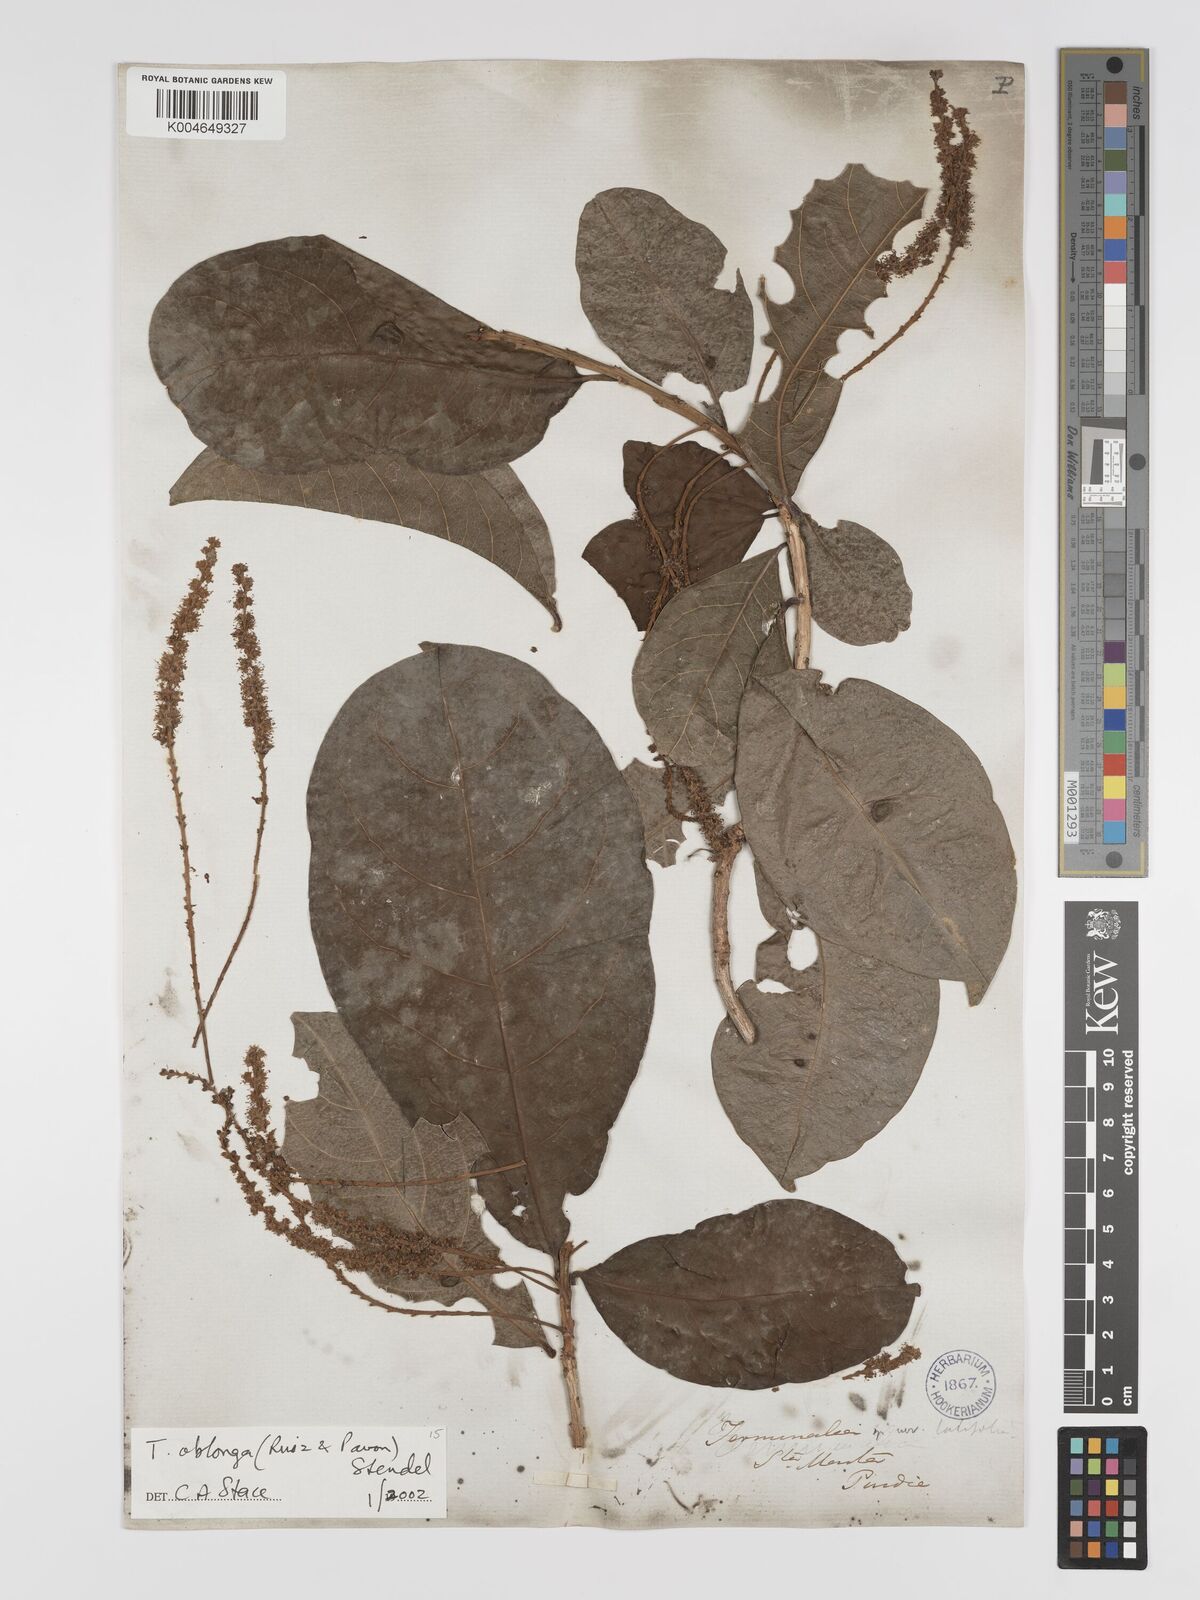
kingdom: Plantae
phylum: Tracheophyta
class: Magnoliopsida
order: Myrtales
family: Combretaceae
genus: Terminalia
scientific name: Terminalia oblonga
